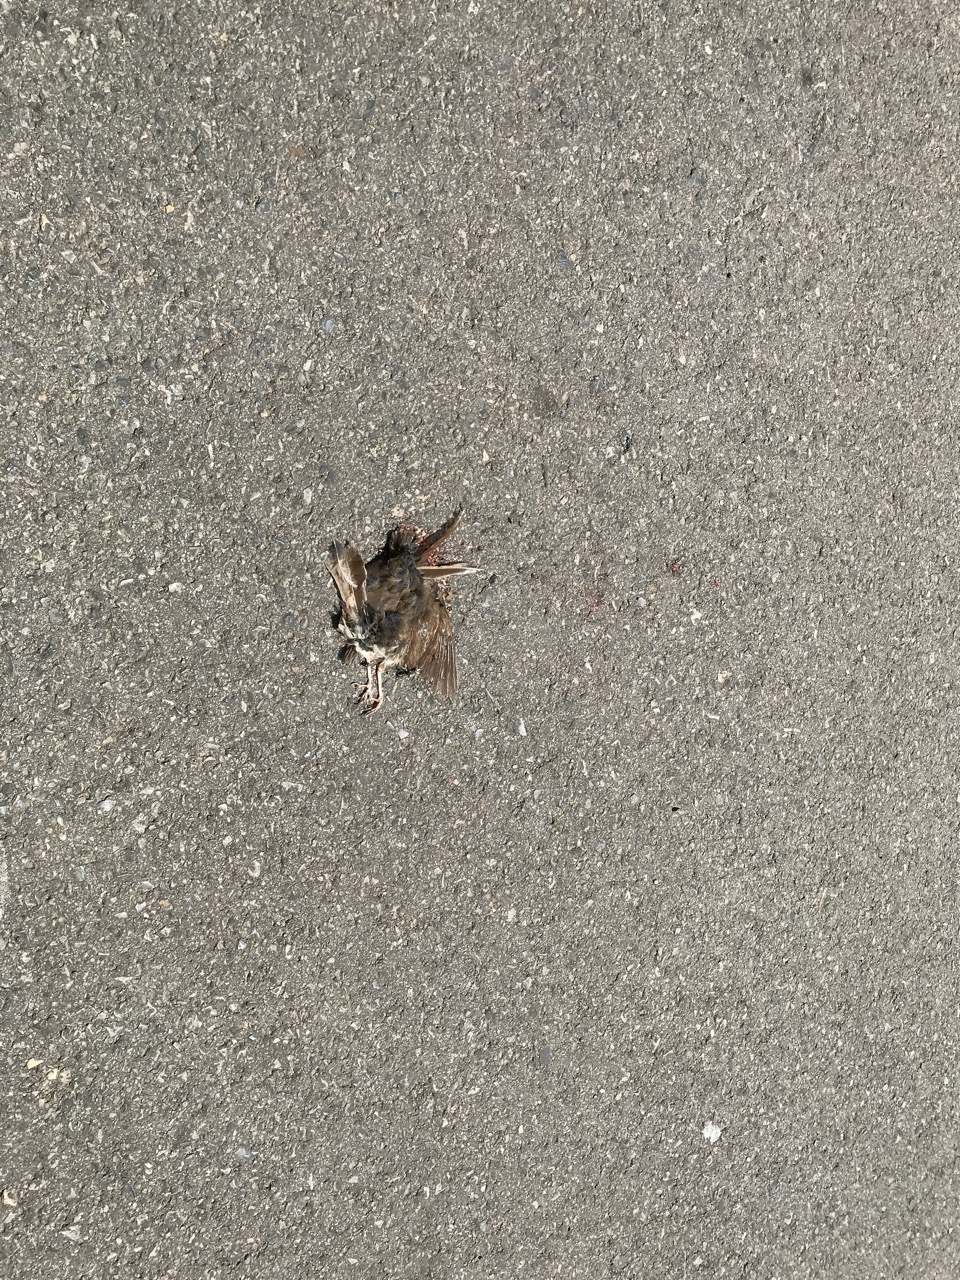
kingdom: Animalia
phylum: Chordata
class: Aves
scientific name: Aves
